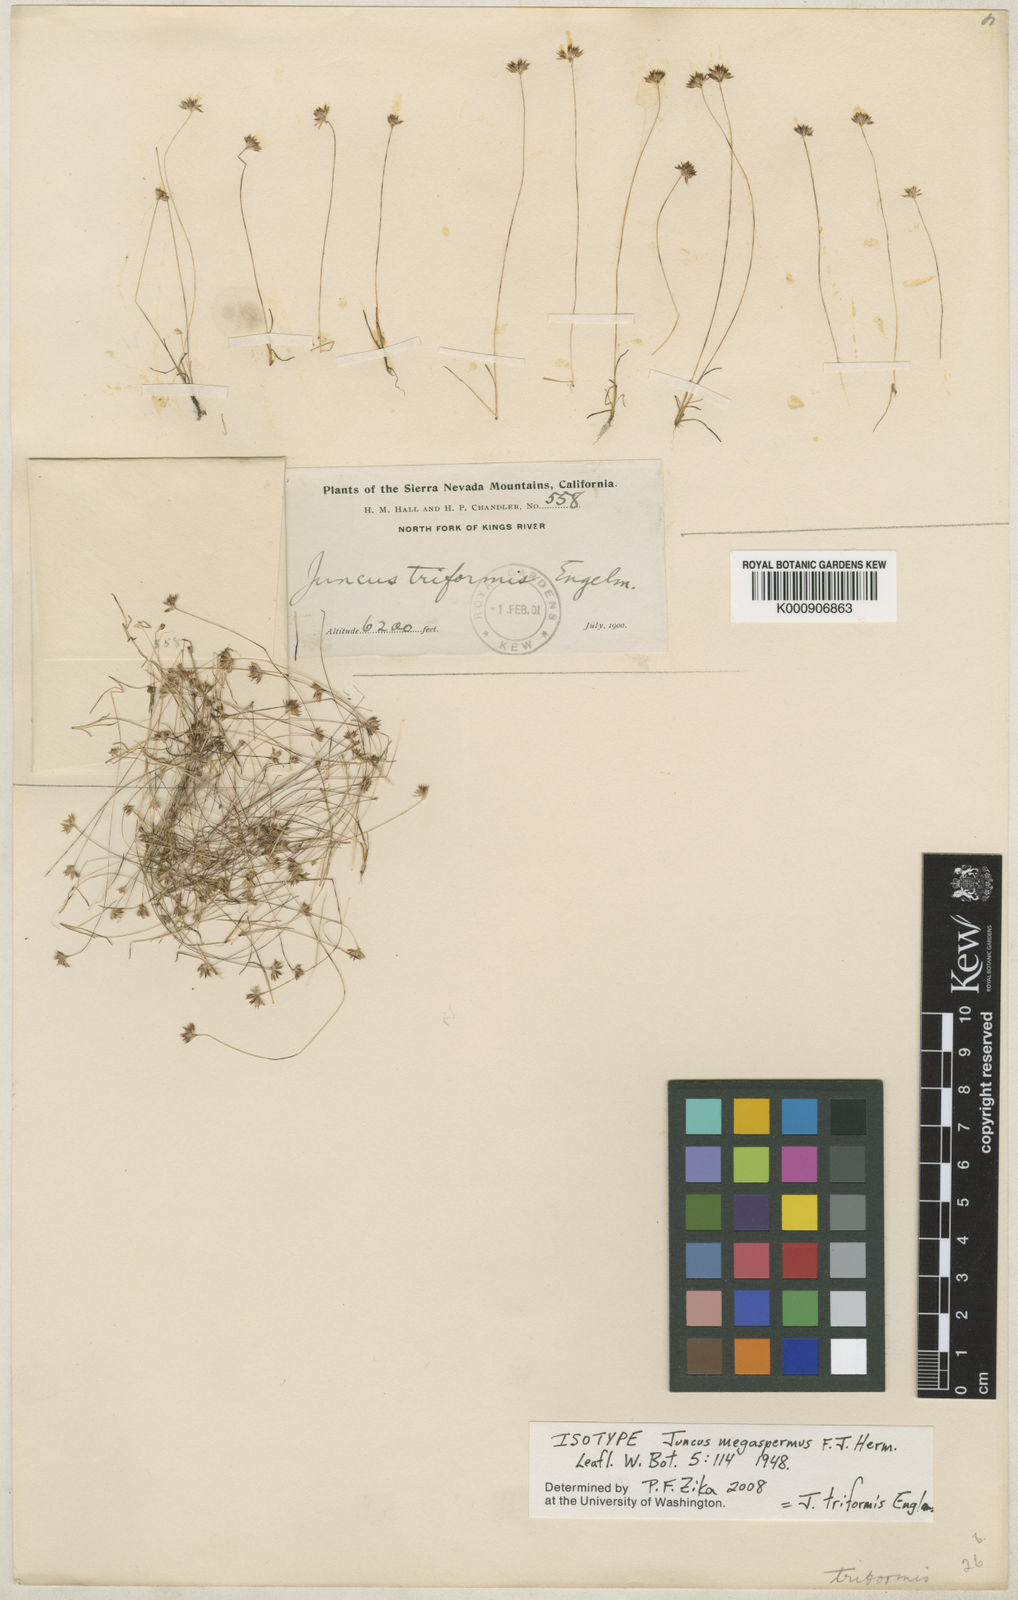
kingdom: Plantae
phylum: Tracheophyta
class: Liliopsida
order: Poales
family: Juncaceae
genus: Juncus
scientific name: Juncus triformis
